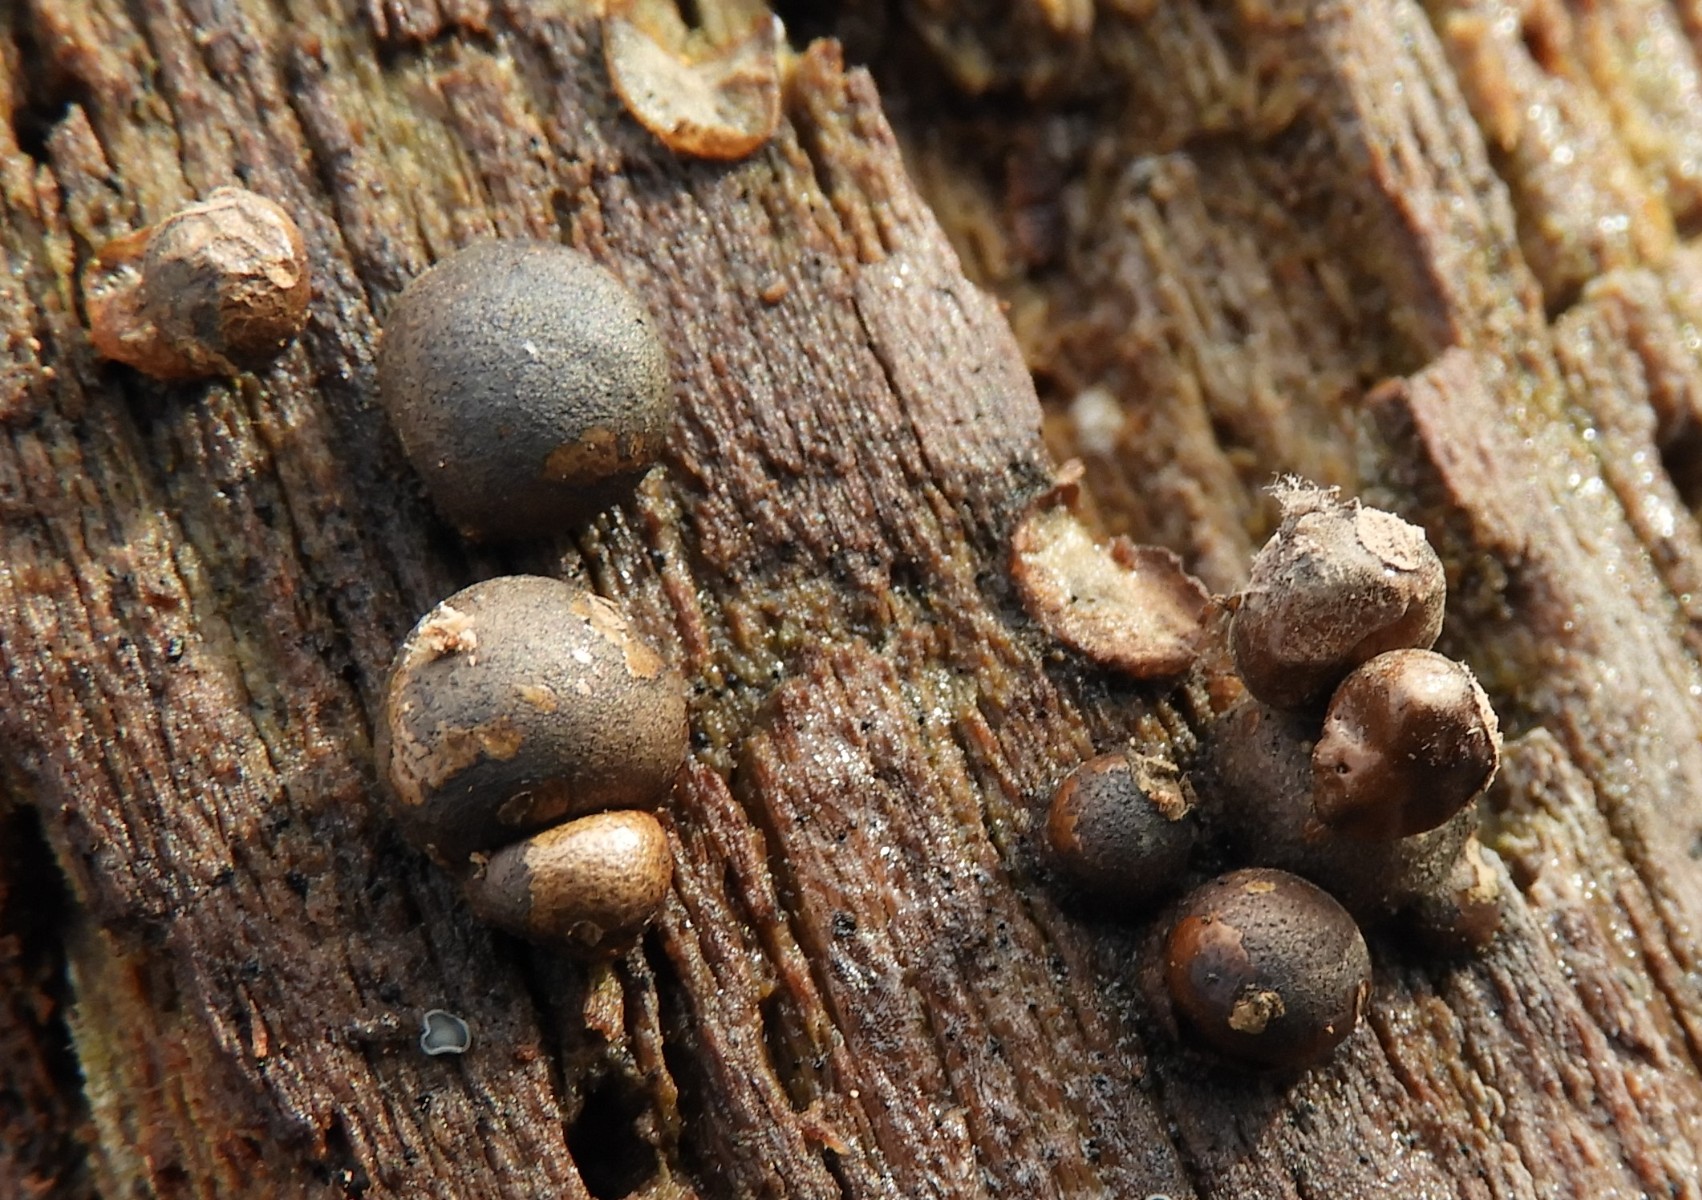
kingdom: Protozoa
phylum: Mycetozoa
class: Myxomycetes
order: Cribrariales
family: Tubiferaceae
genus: Lycogala
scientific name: Lycogala epidendrum
